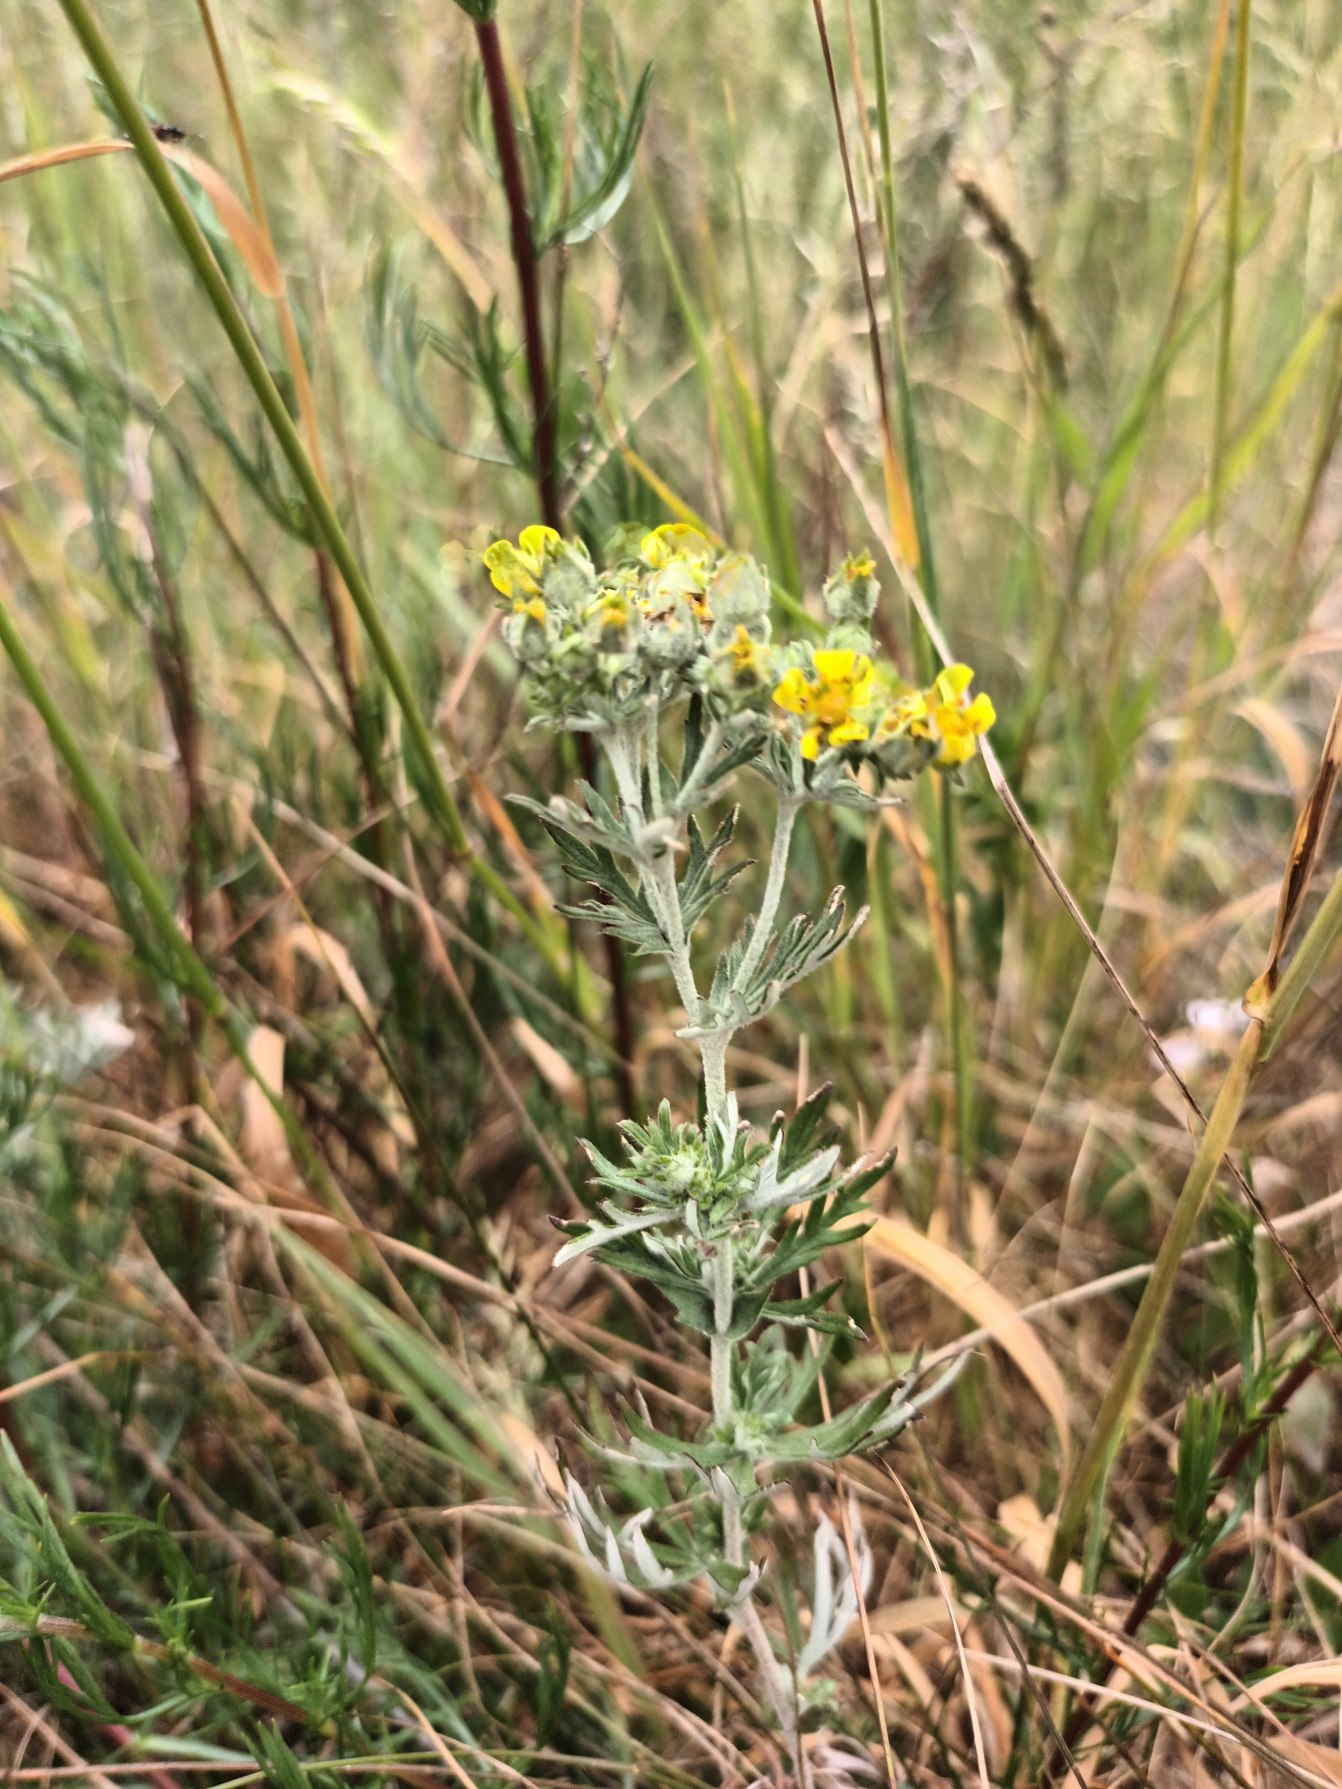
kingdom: Plantae
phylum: Tracheophyta
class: Magnoliopsida
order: Rosales
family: Rosaceae
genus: Potentilla
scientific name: Potentilla neglecta
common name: Håret sølv-potentil
